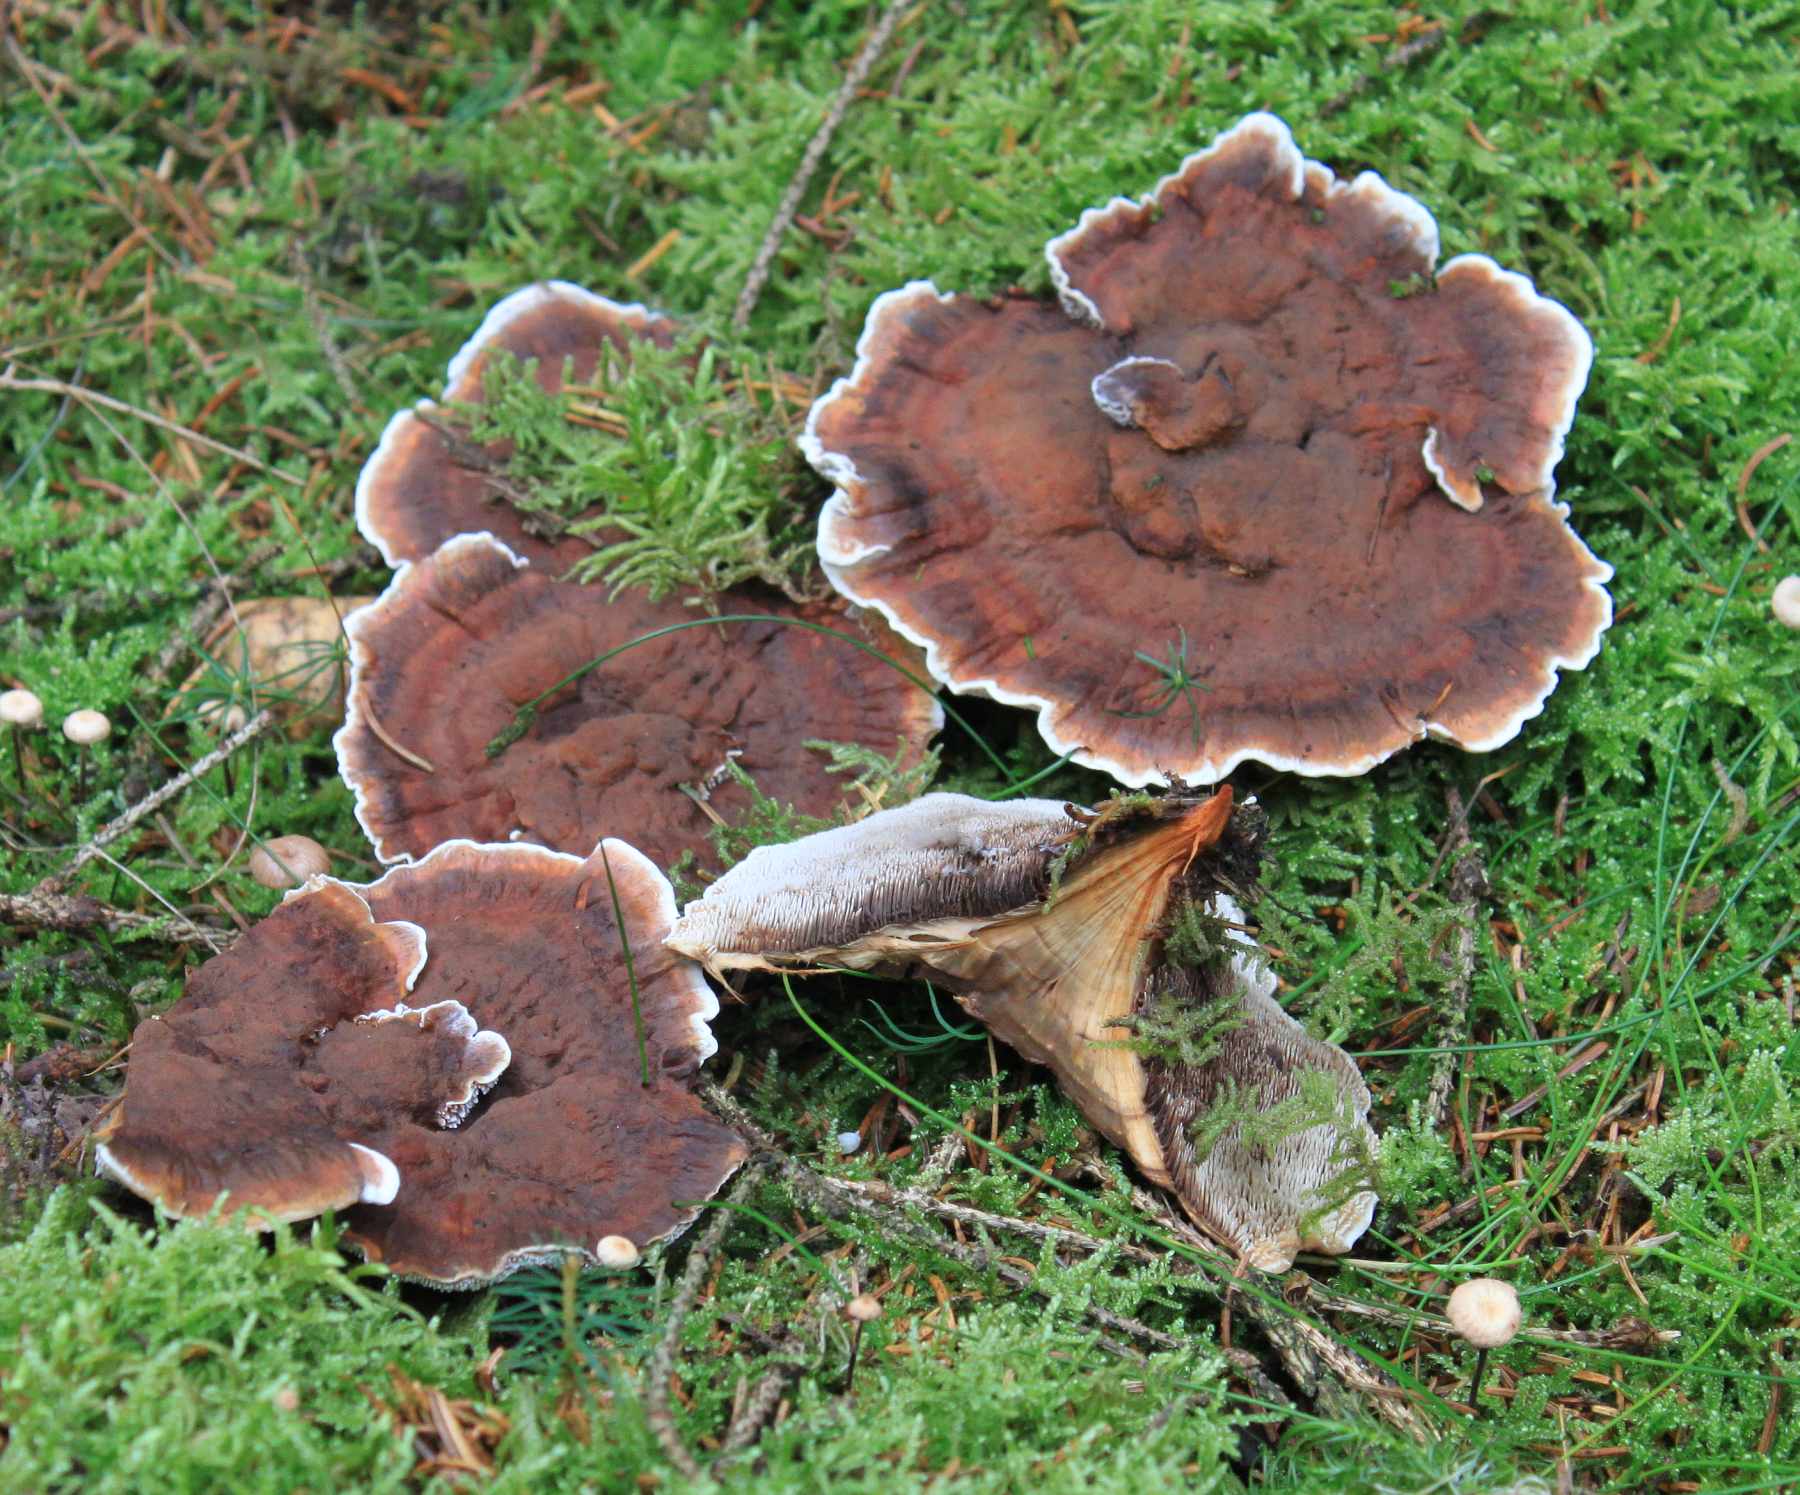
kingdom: Fungi
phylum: Basidiomycota
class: Agaricomycetes
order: Thelephorales
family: Bankeraceae
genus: Hydnellum
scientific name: Hydnellum aurantiacum
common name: orange korkpigsvamp
